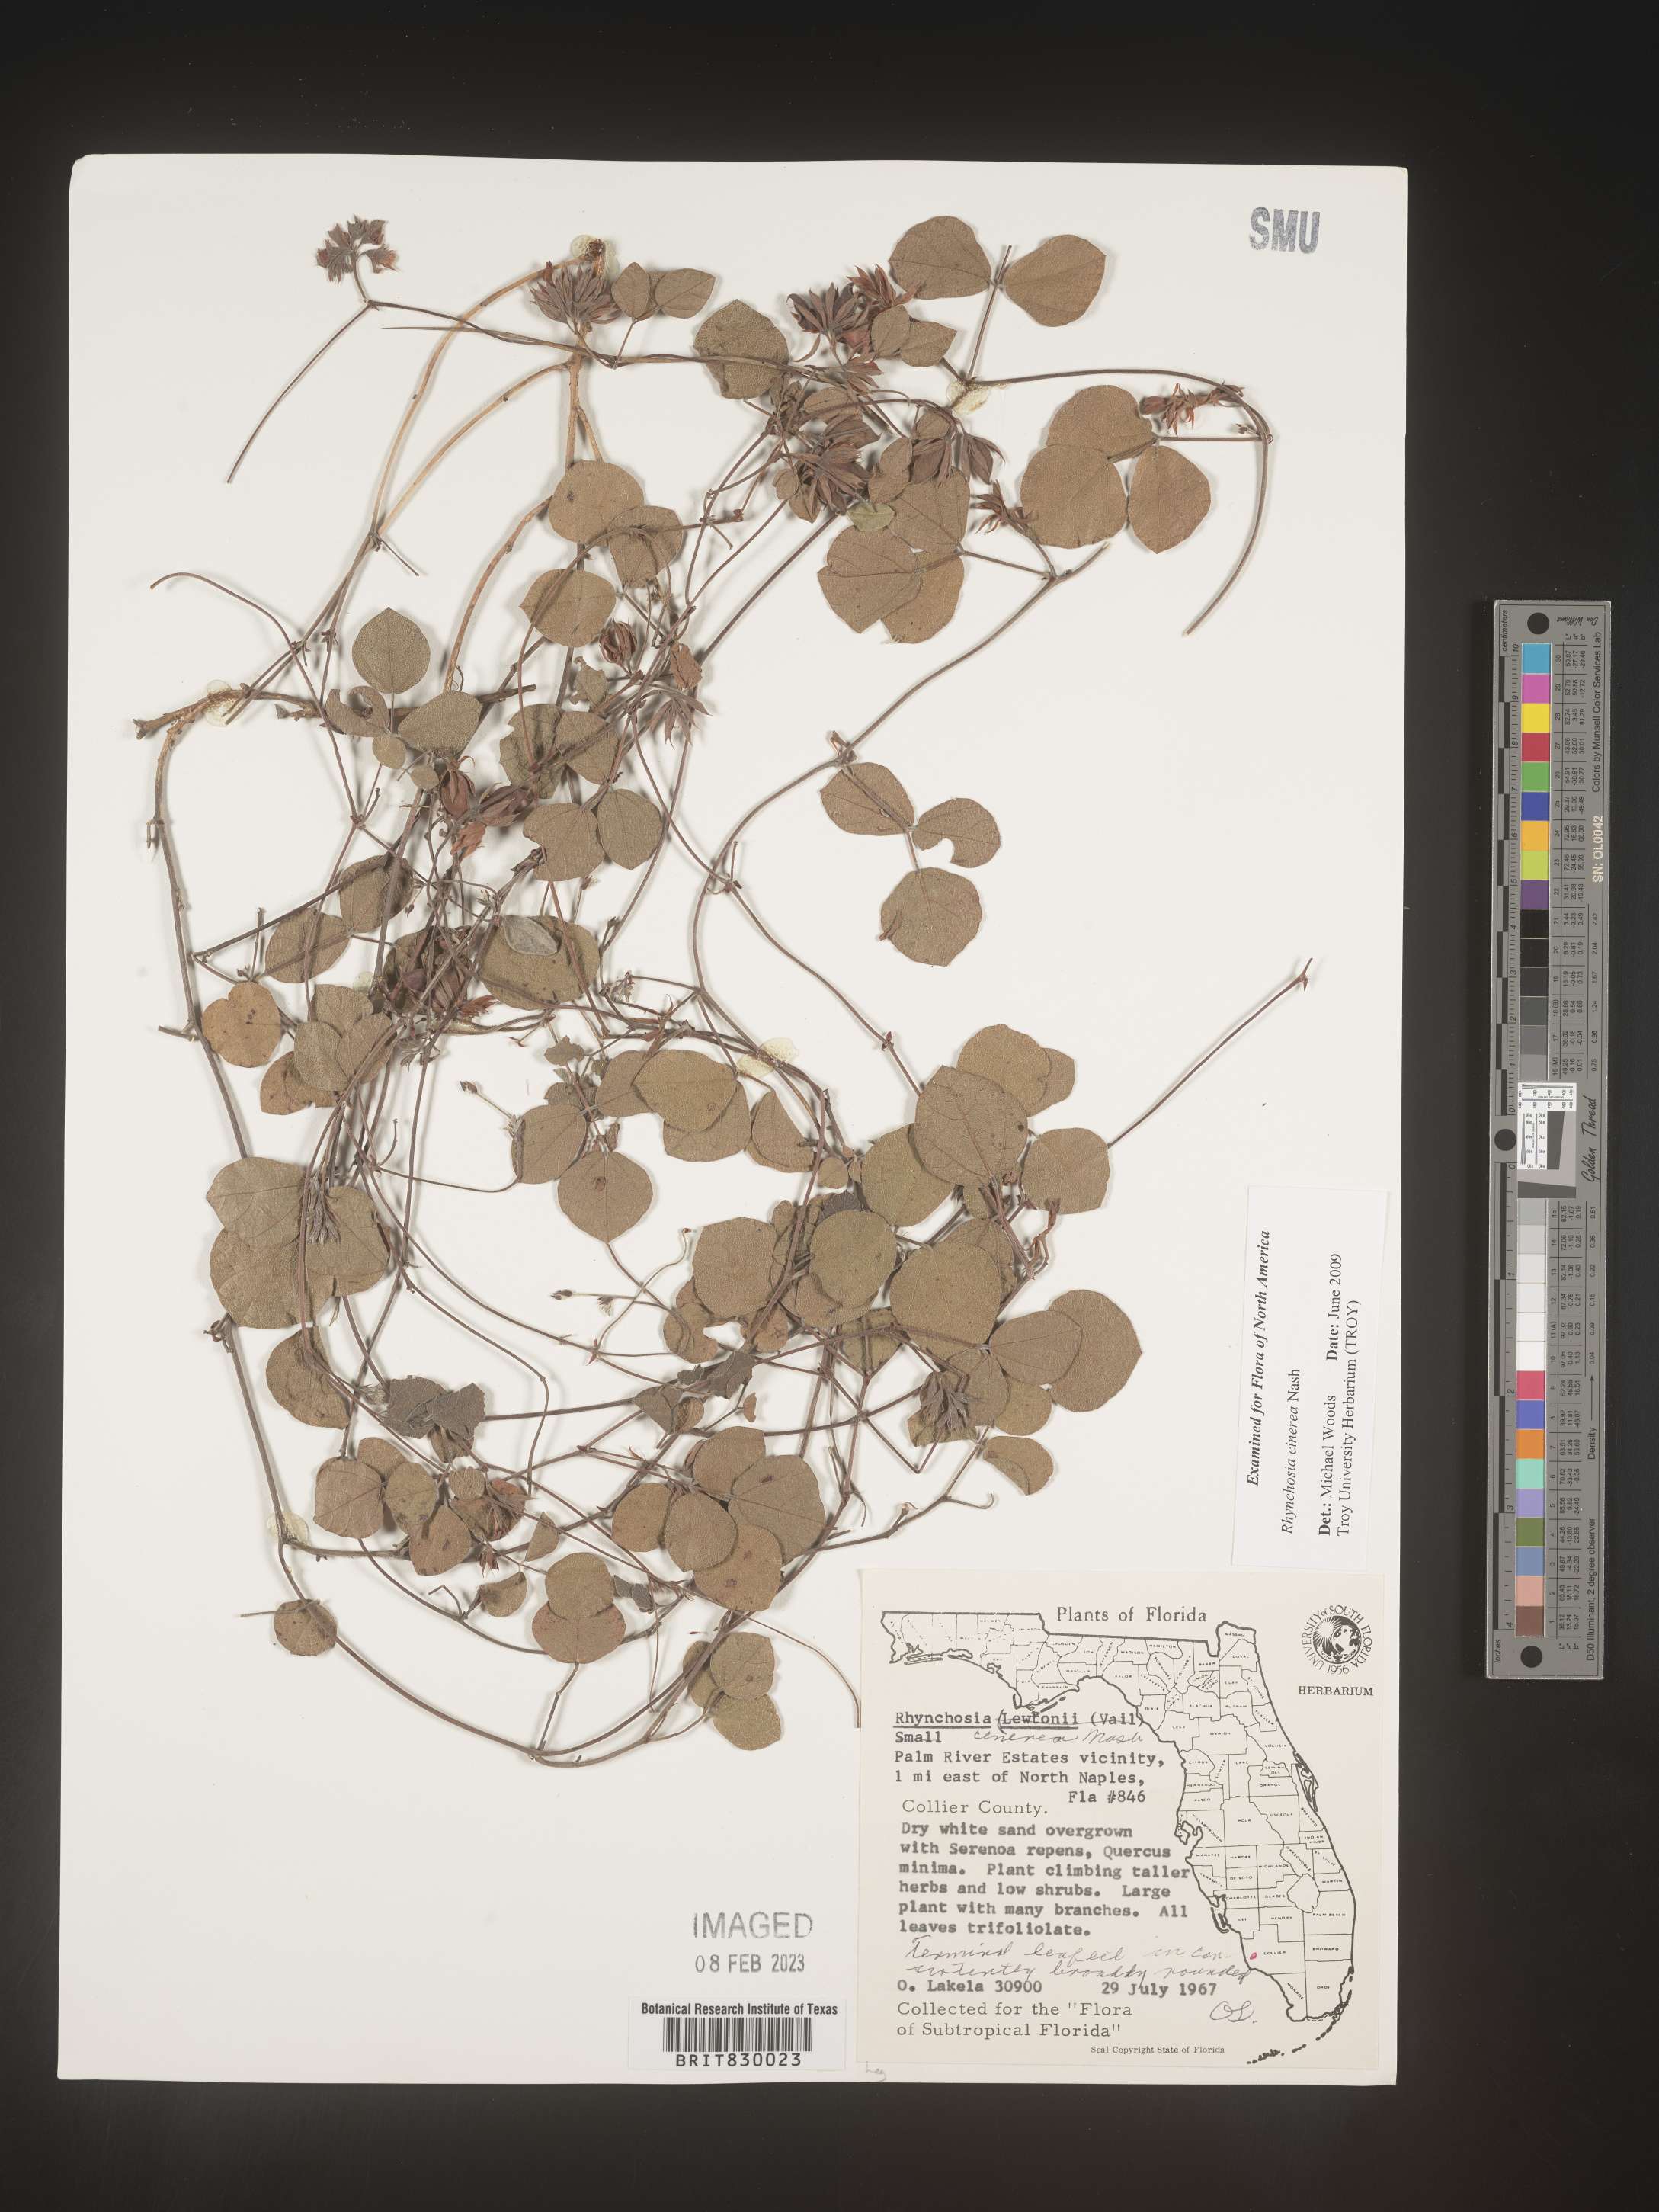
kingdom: Plantae
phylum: Tracheophyta
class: Magnoliopsida
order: Fabales
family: Fabaceae
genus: Rhynchosia
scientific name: Rhynchosia
